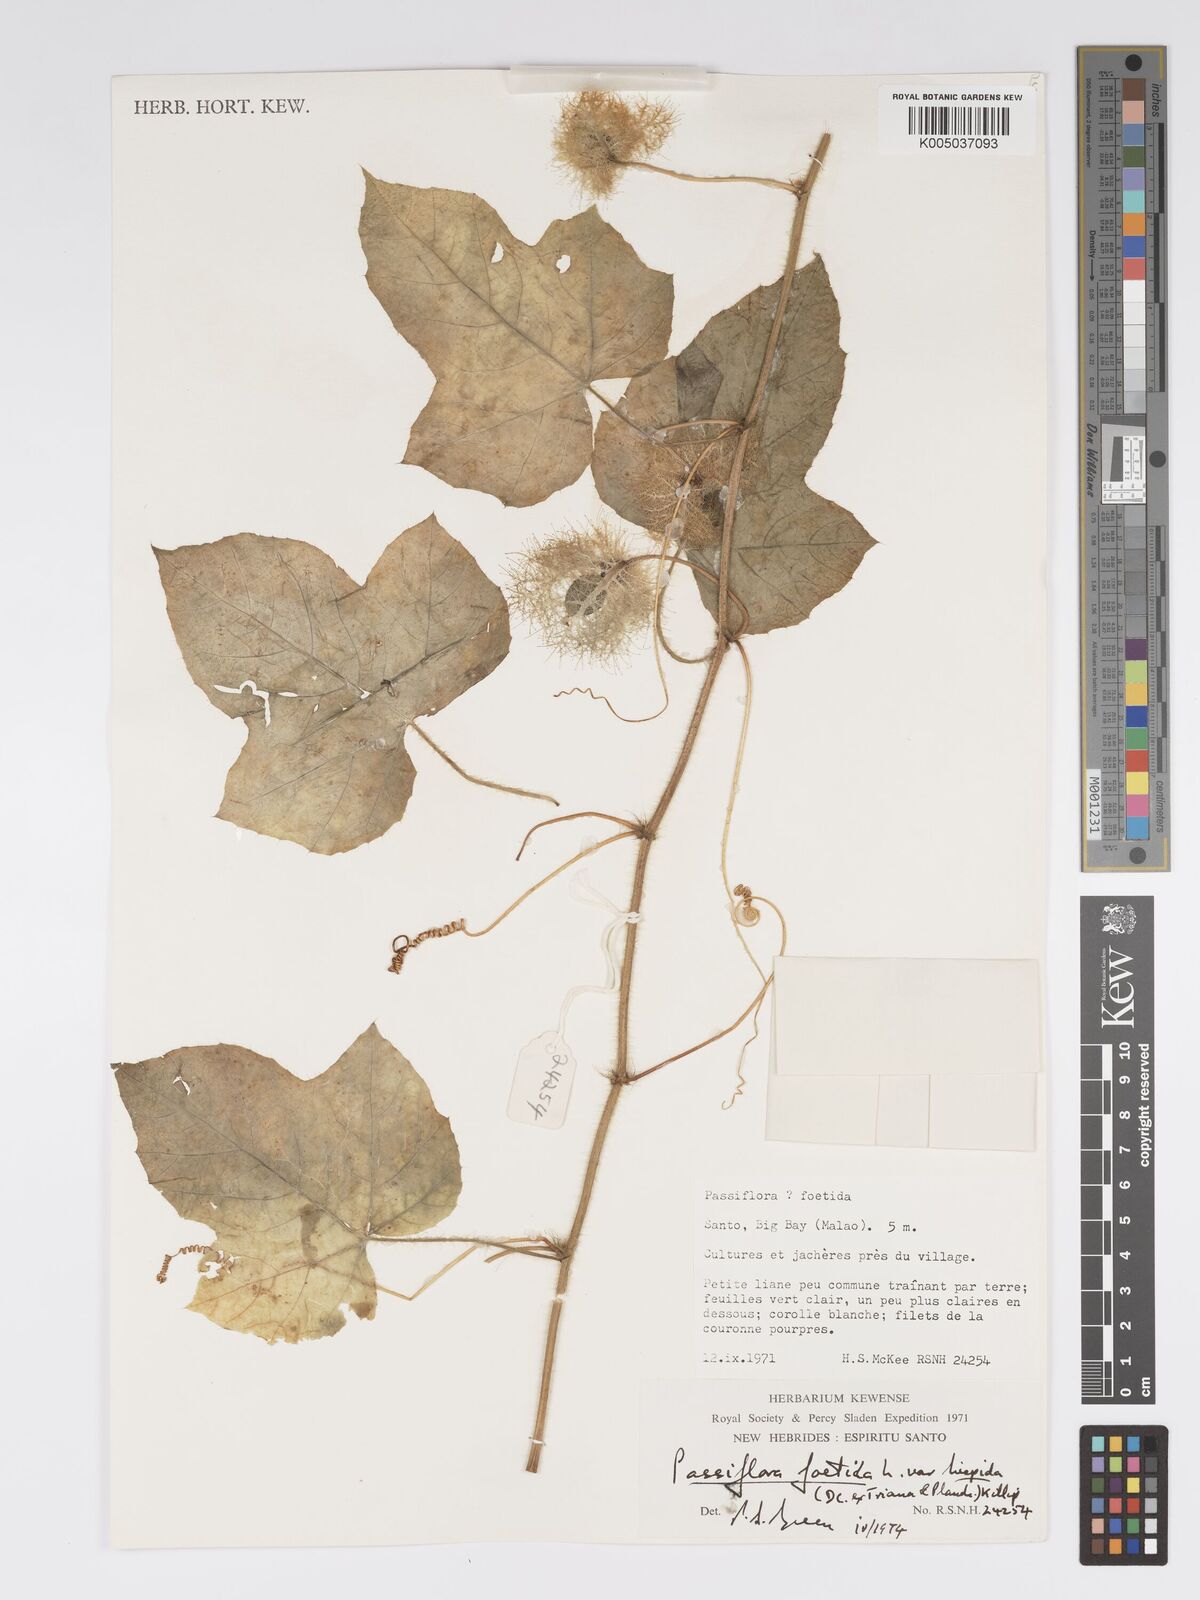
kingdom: Plantae
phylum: Tracheophyta
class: Magnoliopsida
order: Malpighiales
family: Passifloraceae
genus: Passiflora
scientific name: Passiflora foetida
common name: Fetid passionflower
